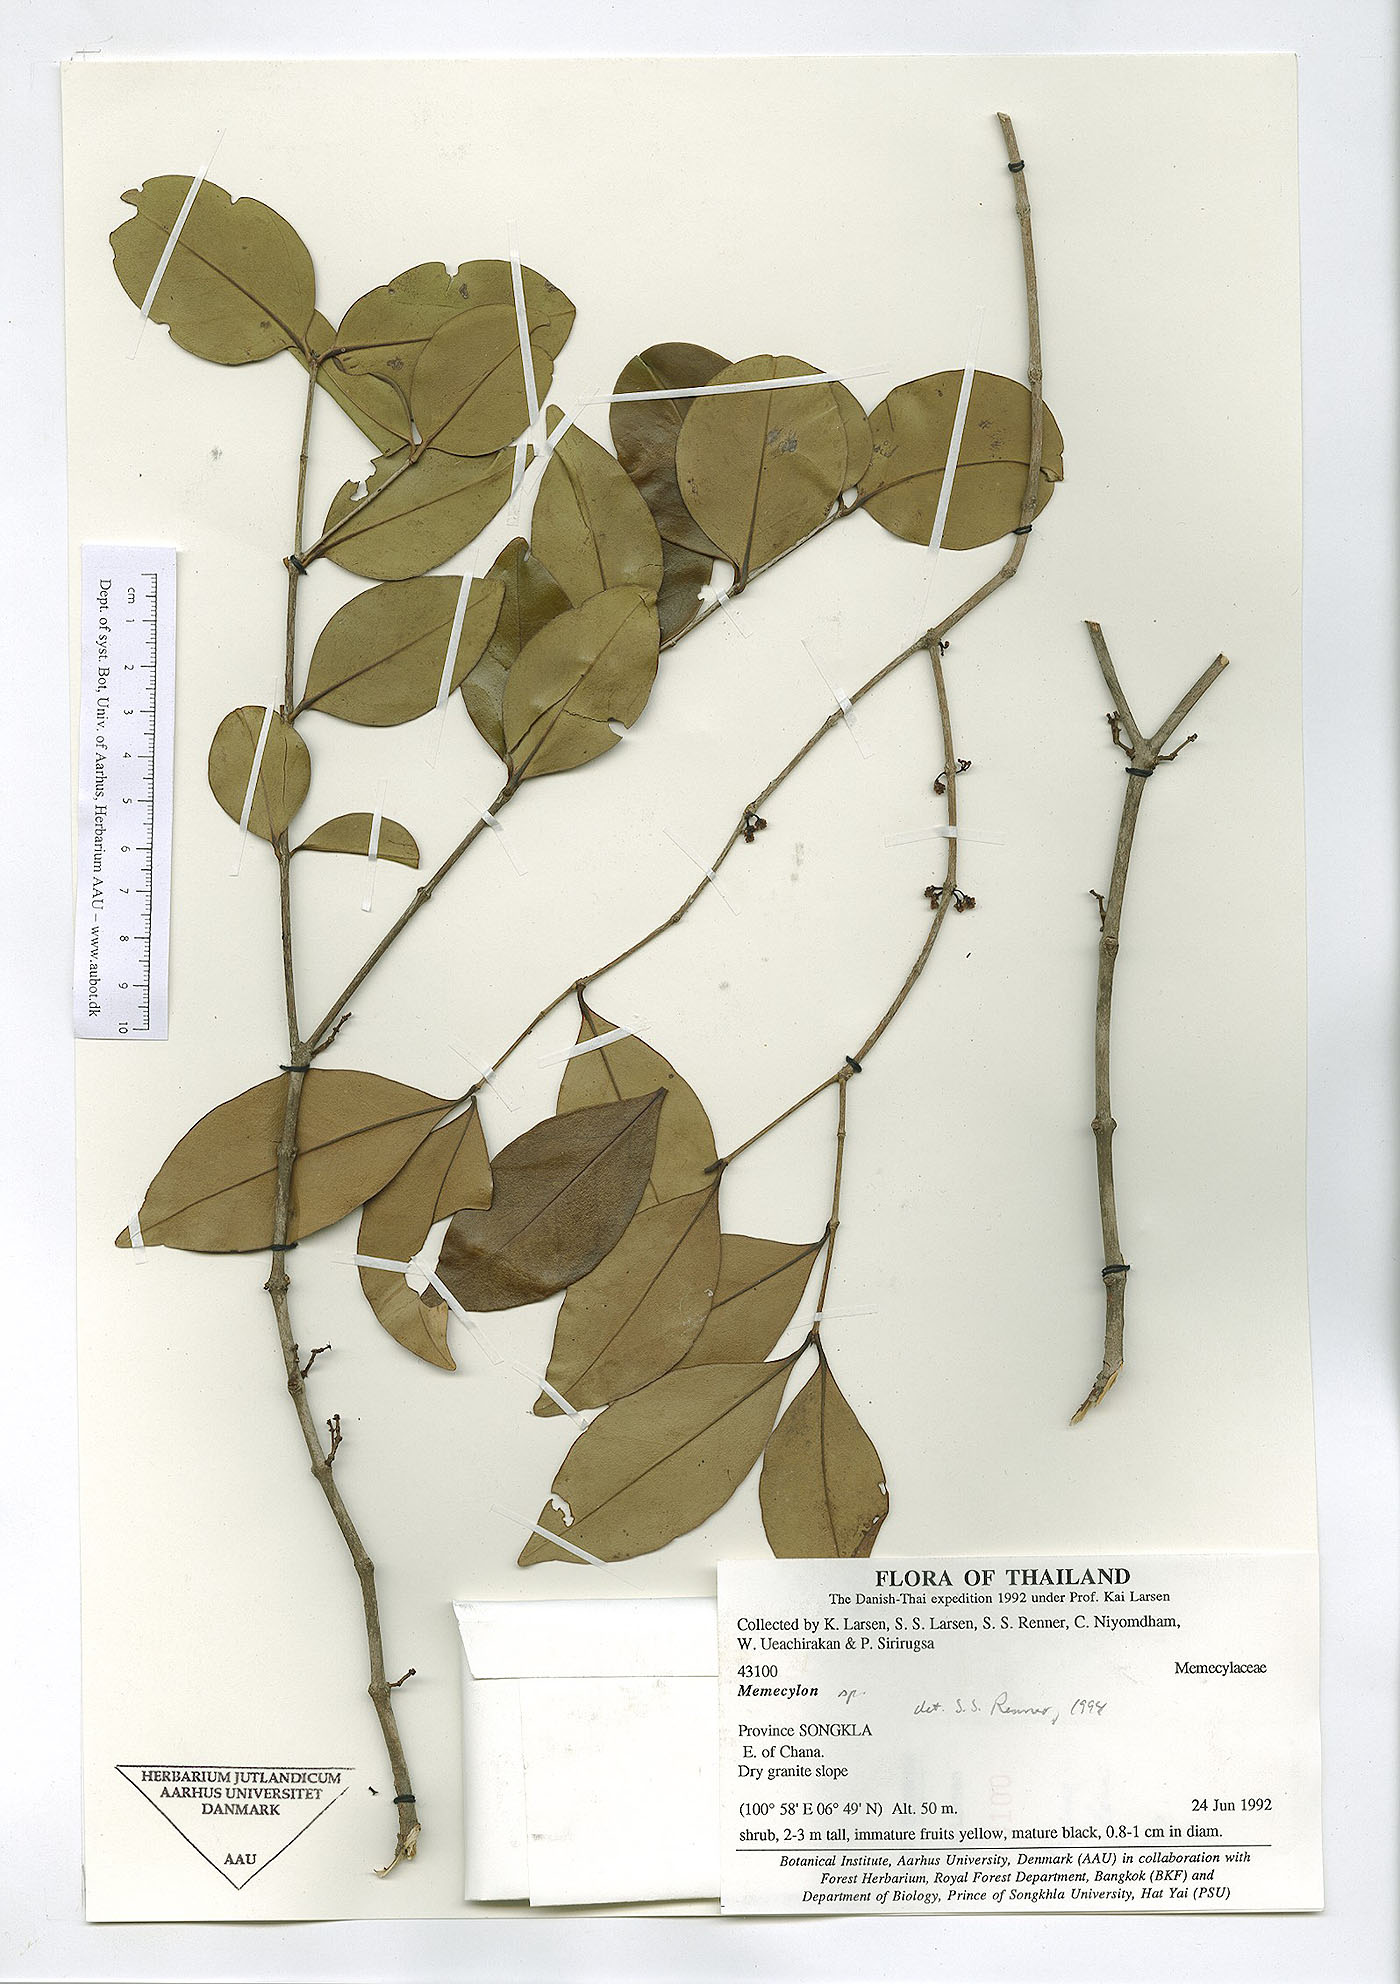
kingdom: Plantae
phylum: Tracheophyta
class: Magnoliopsida
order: Myrtales
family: Melastomataceae
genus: Memecylon
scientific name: Memecylon edule
